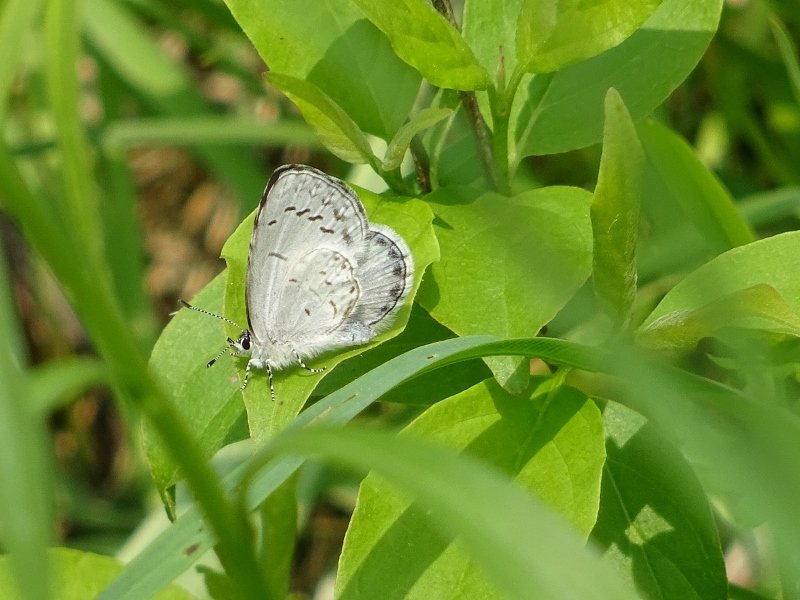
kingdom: Animalia
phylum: Arthropoda
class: Insecta
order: Lepidoptera
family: Lycaenidae
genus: Celastrina
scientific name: Celastrina
